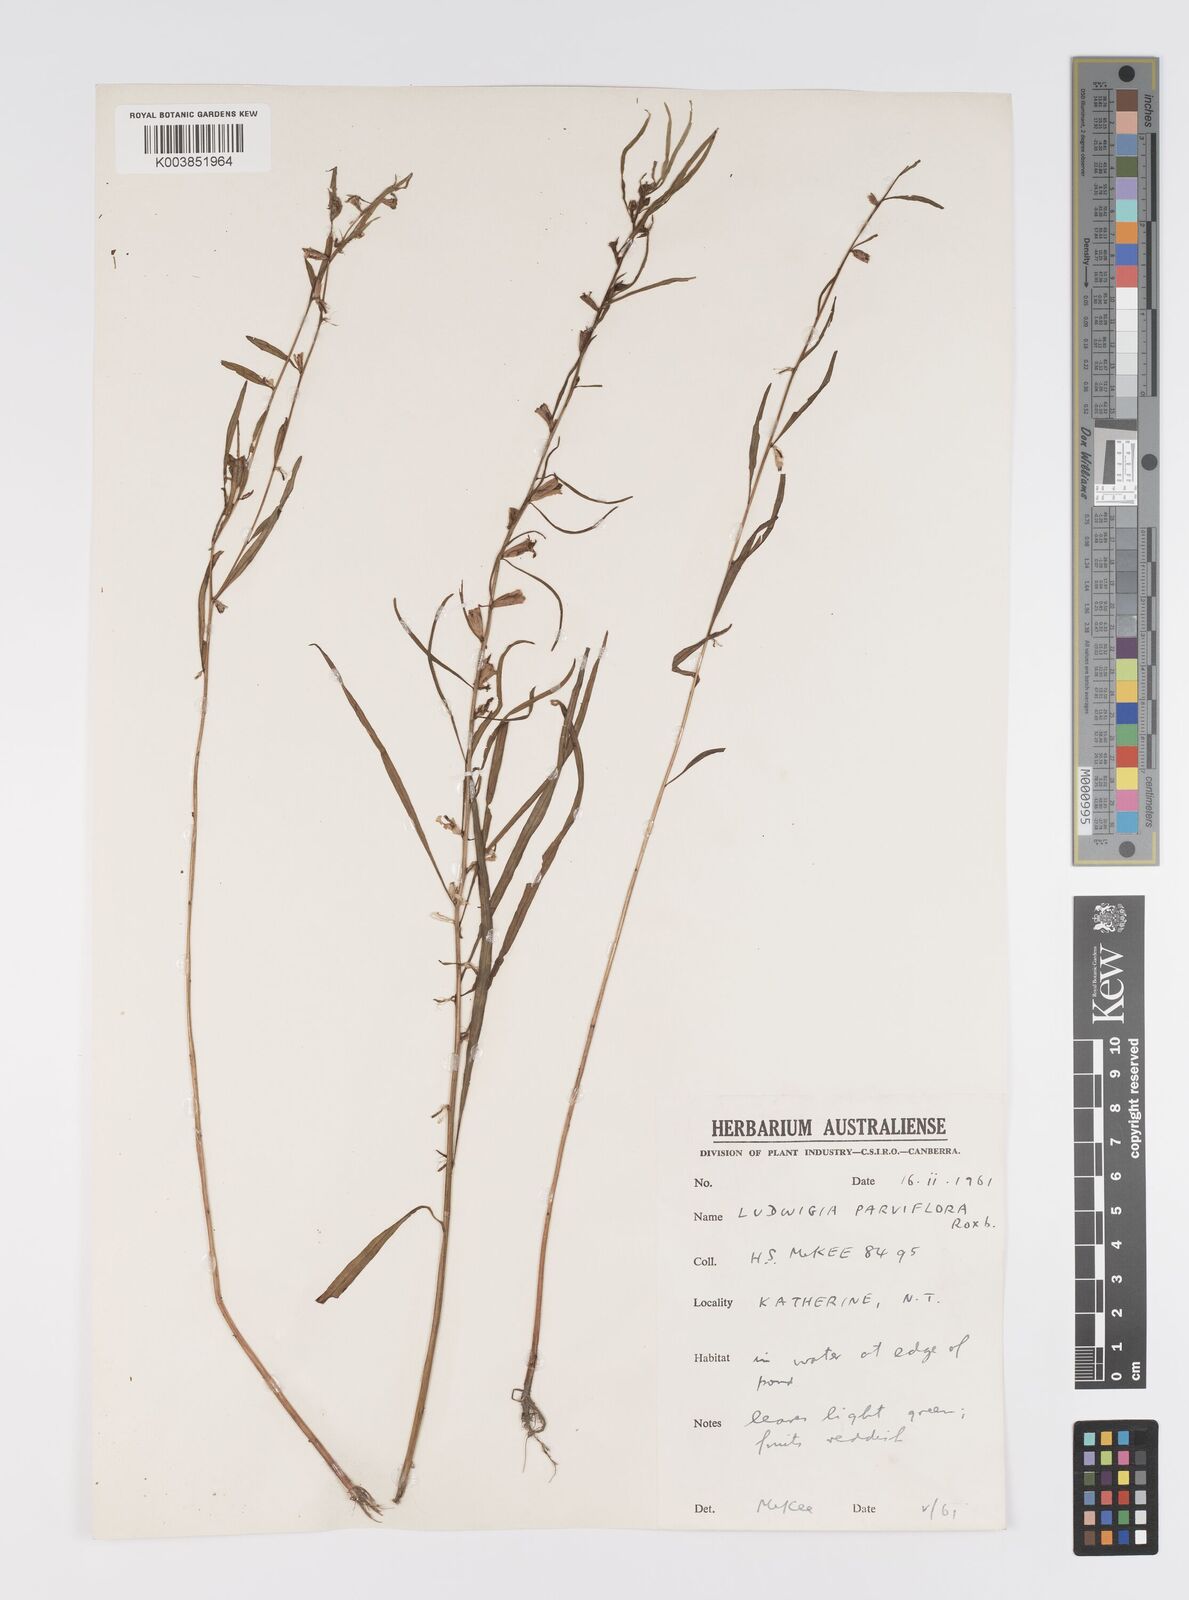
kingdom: Plantae
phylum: Tracheophyta
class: Magnoliopsida
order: Myrtales
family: Onagraceae
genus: Ludwigia
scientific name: Ludwigia perennis
